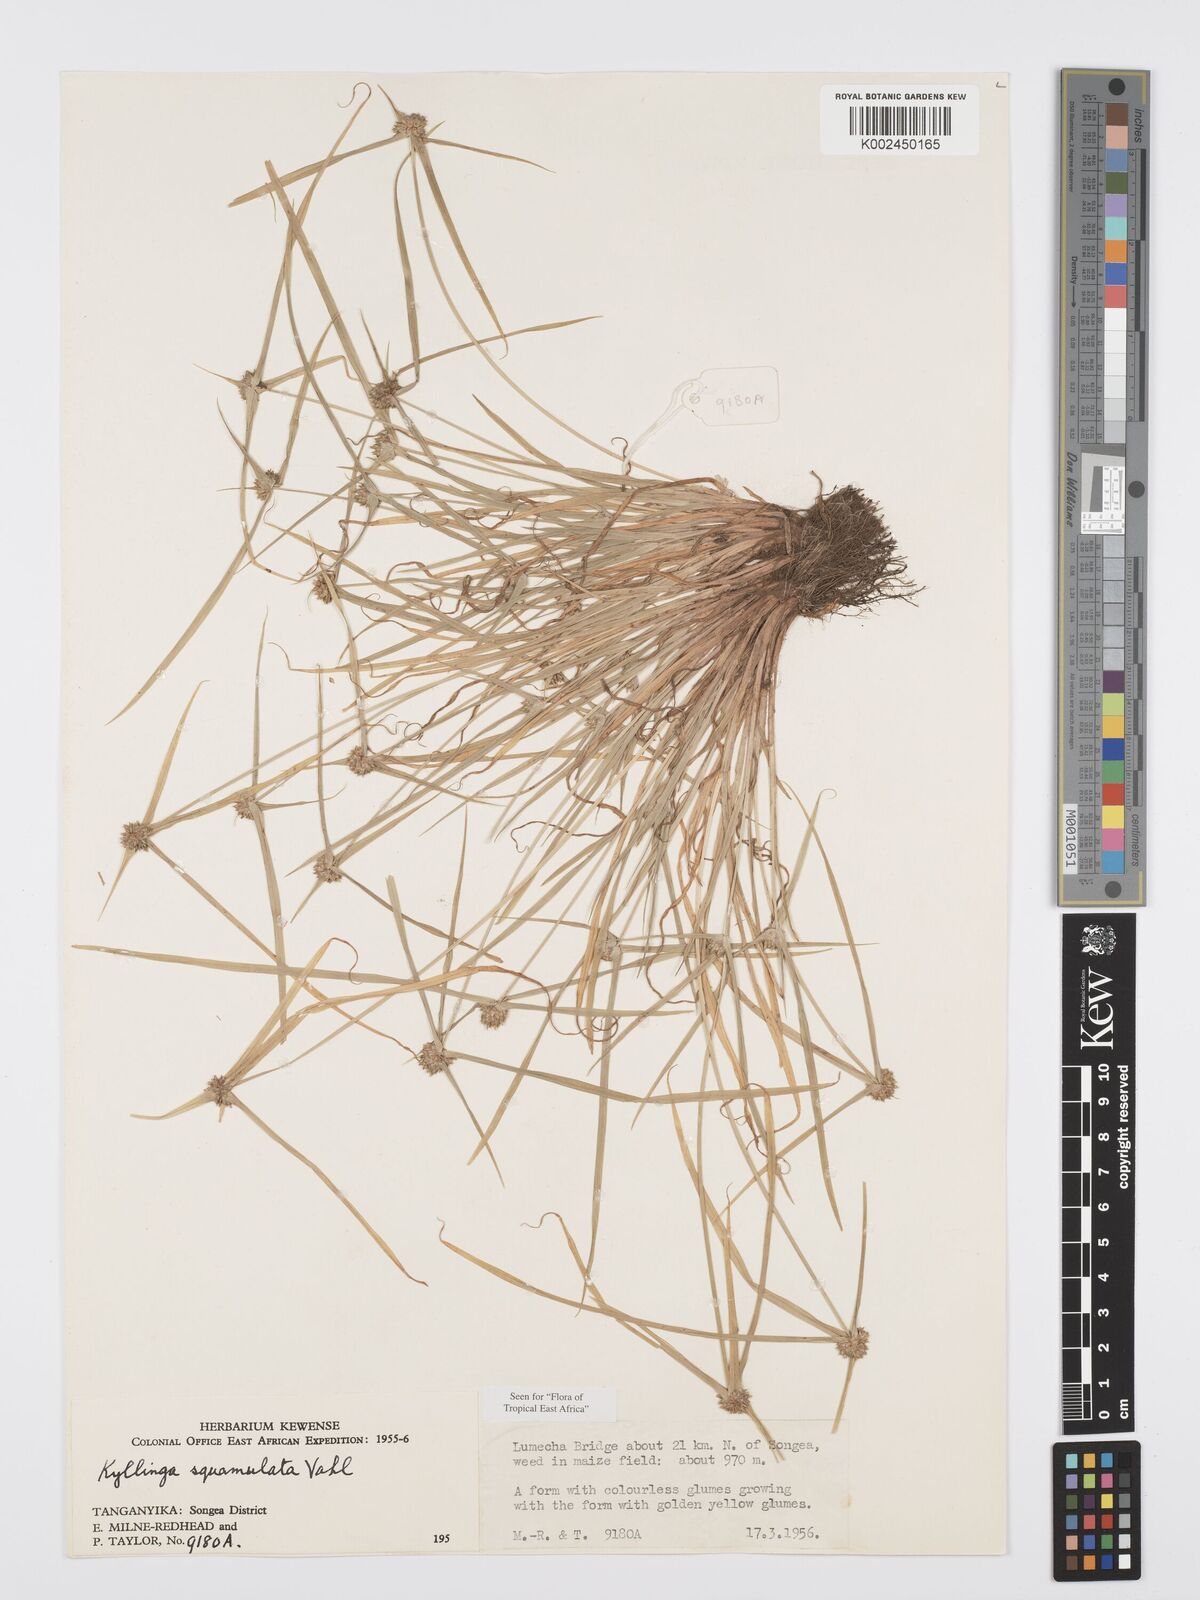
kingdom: Plantae
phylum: Tracheophyta
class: Liliopsida
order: Poales
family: Cyperaceae
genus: Cyperus
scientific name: Cyperus distans
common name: Slender cyperus
